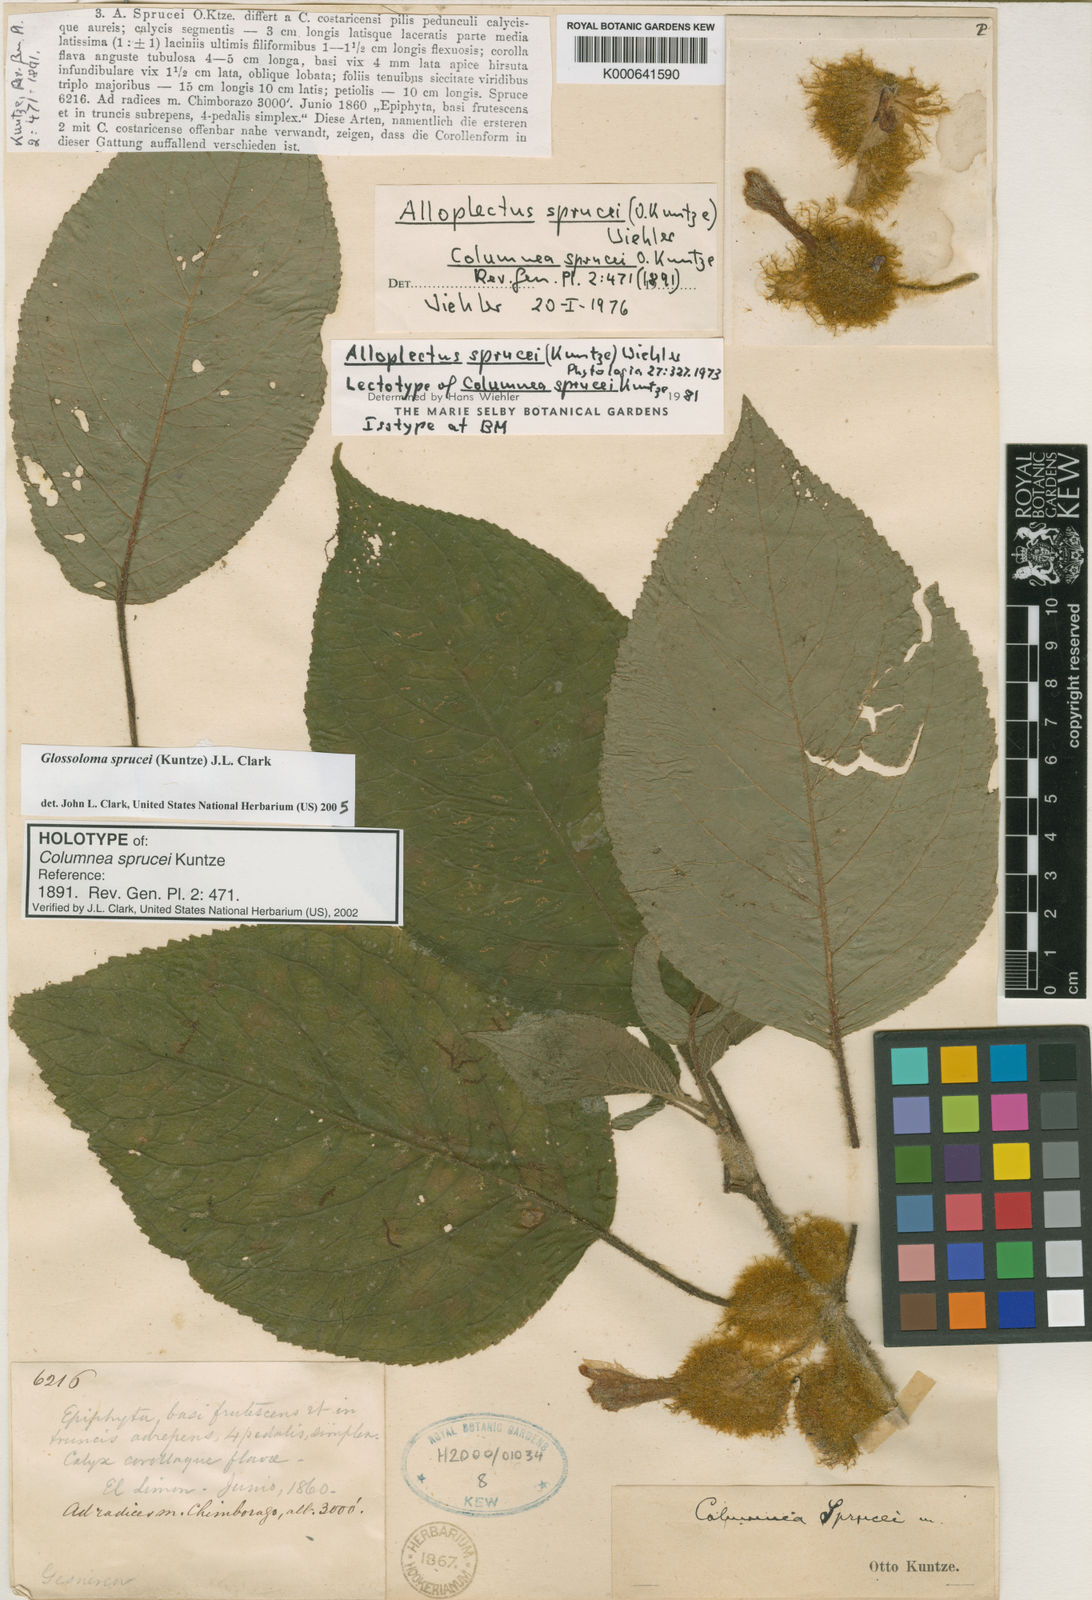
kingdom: Plantae
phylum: Tracheophyta
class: Magnoliopsida
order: Lamiales
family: Gesneriaceae
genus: Glossoloma
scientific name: Glossoloma sprucei
